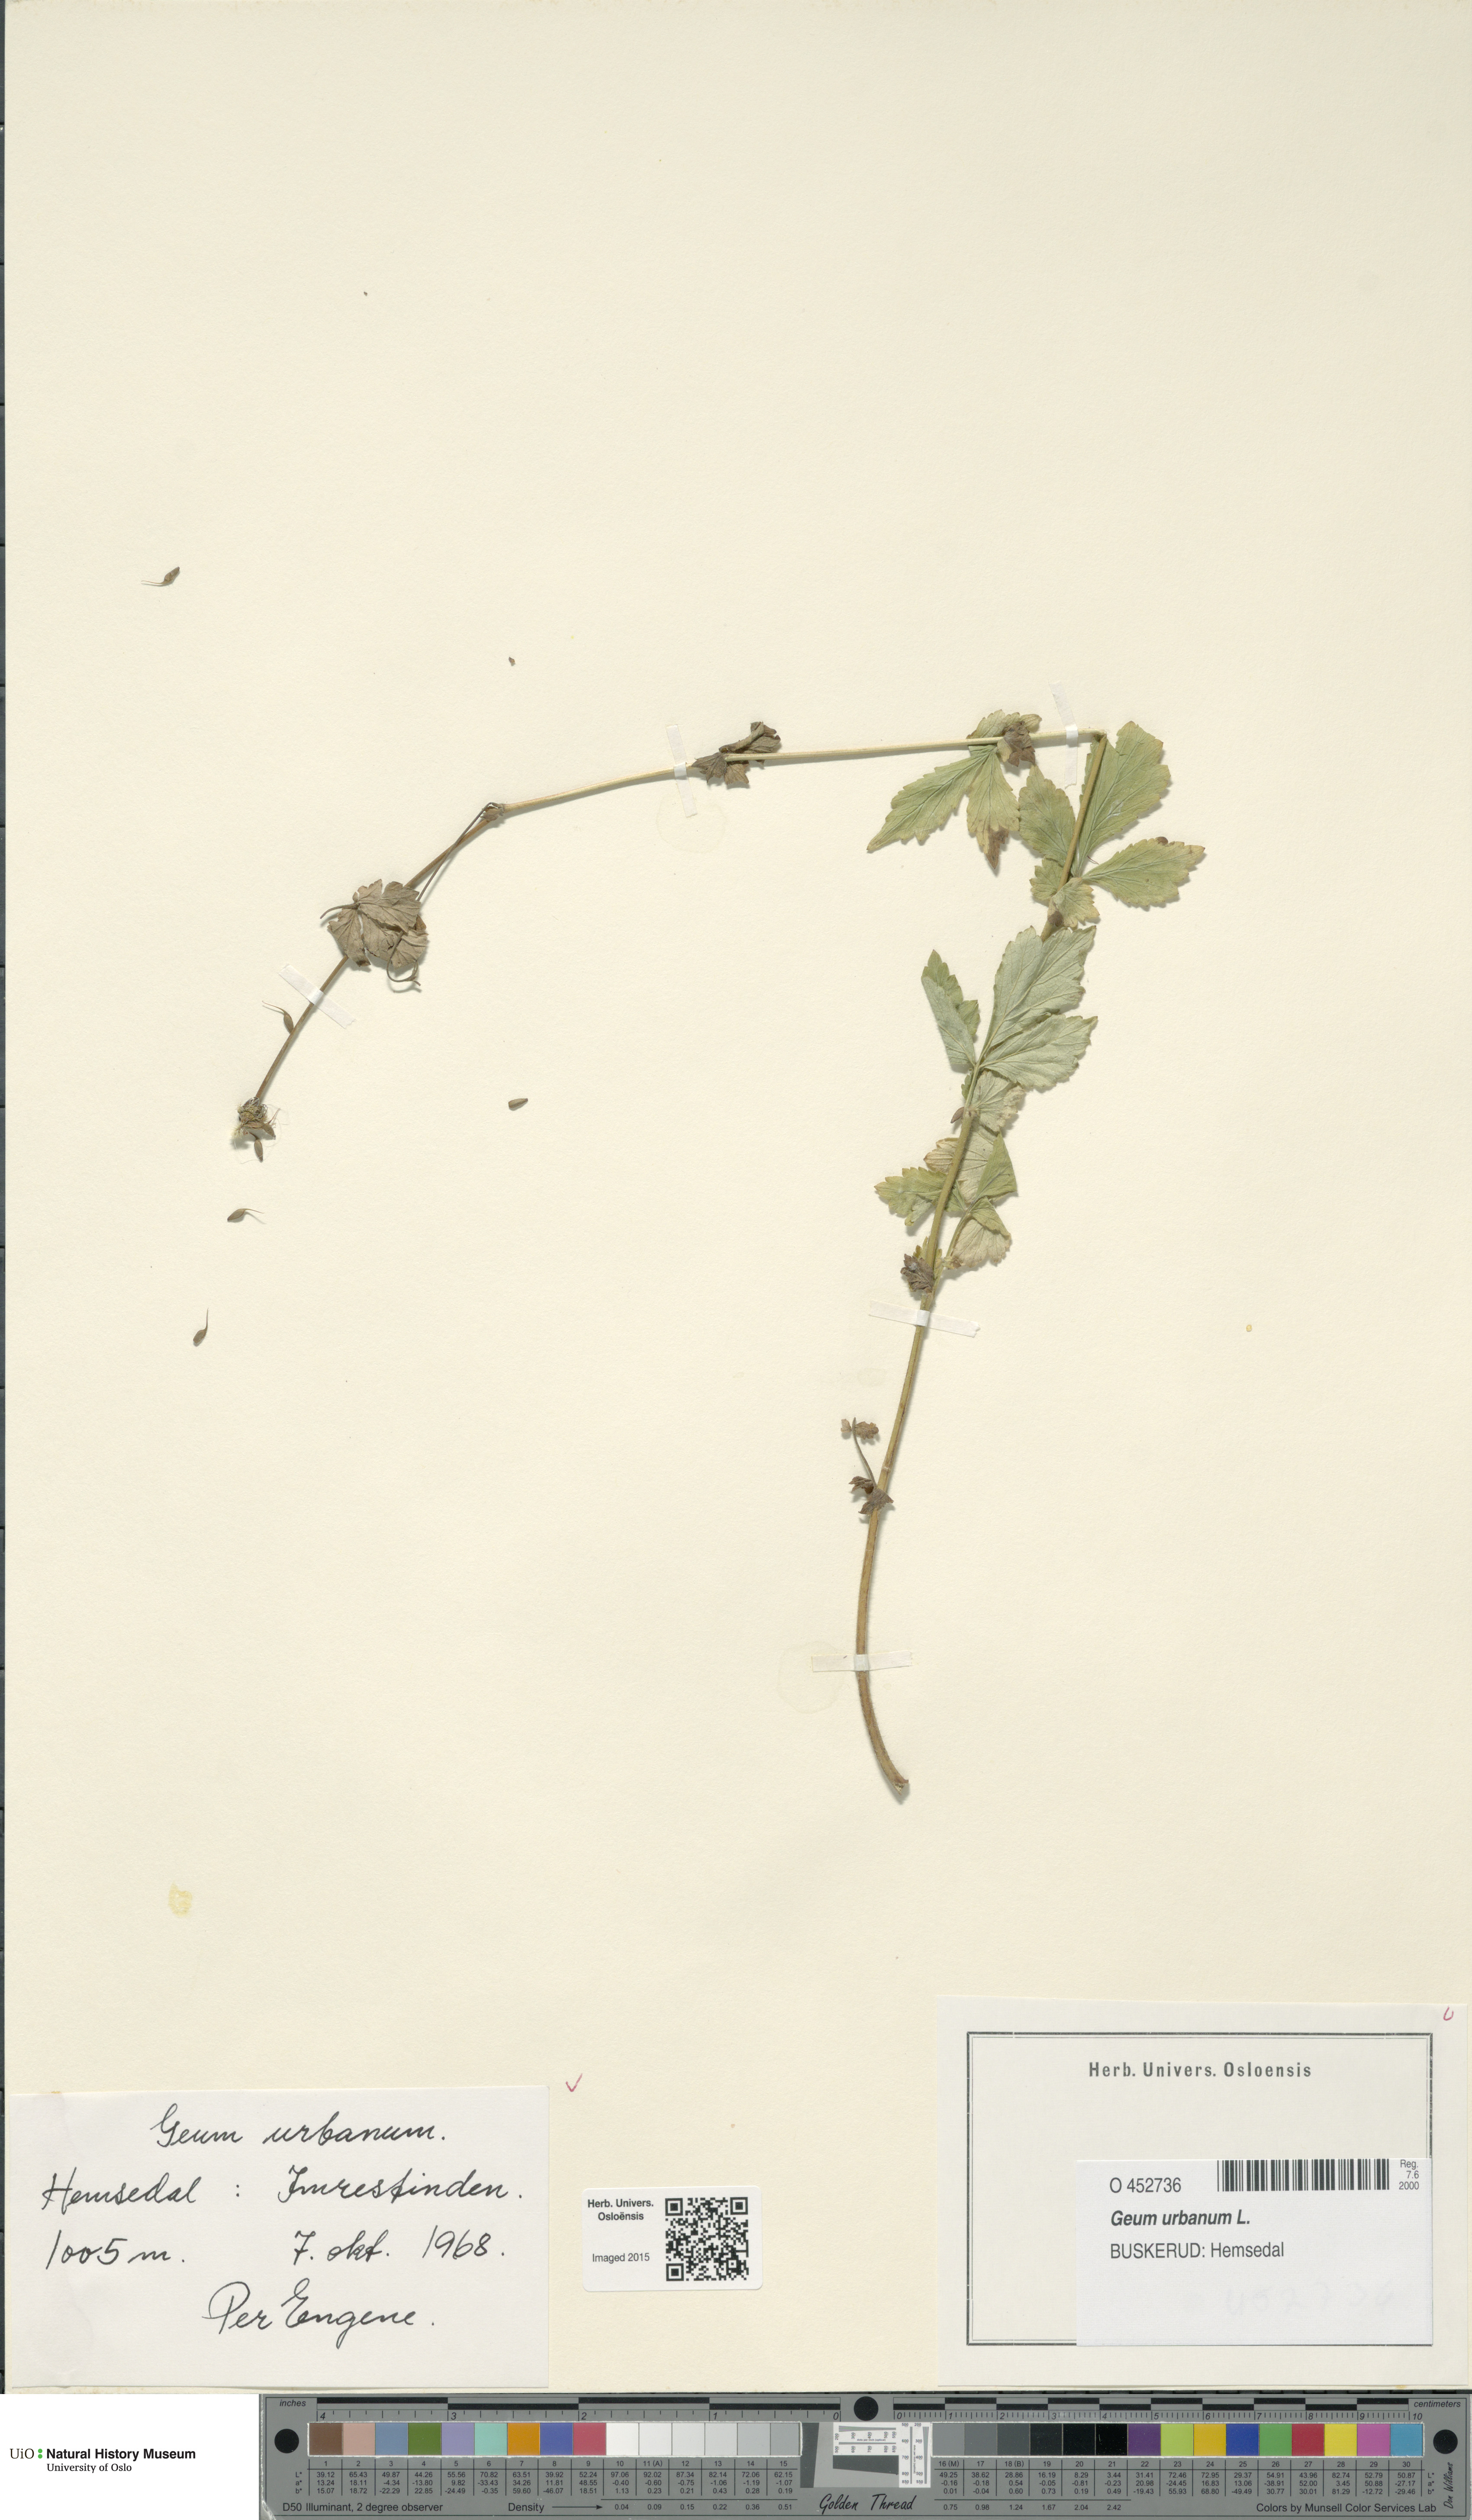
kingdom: Plantae
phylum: Tracheophyta
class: Magnoliopsida
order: Rosales
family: Rosaceae
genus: Geum
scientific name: Geum urbanum
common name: Wood avens
